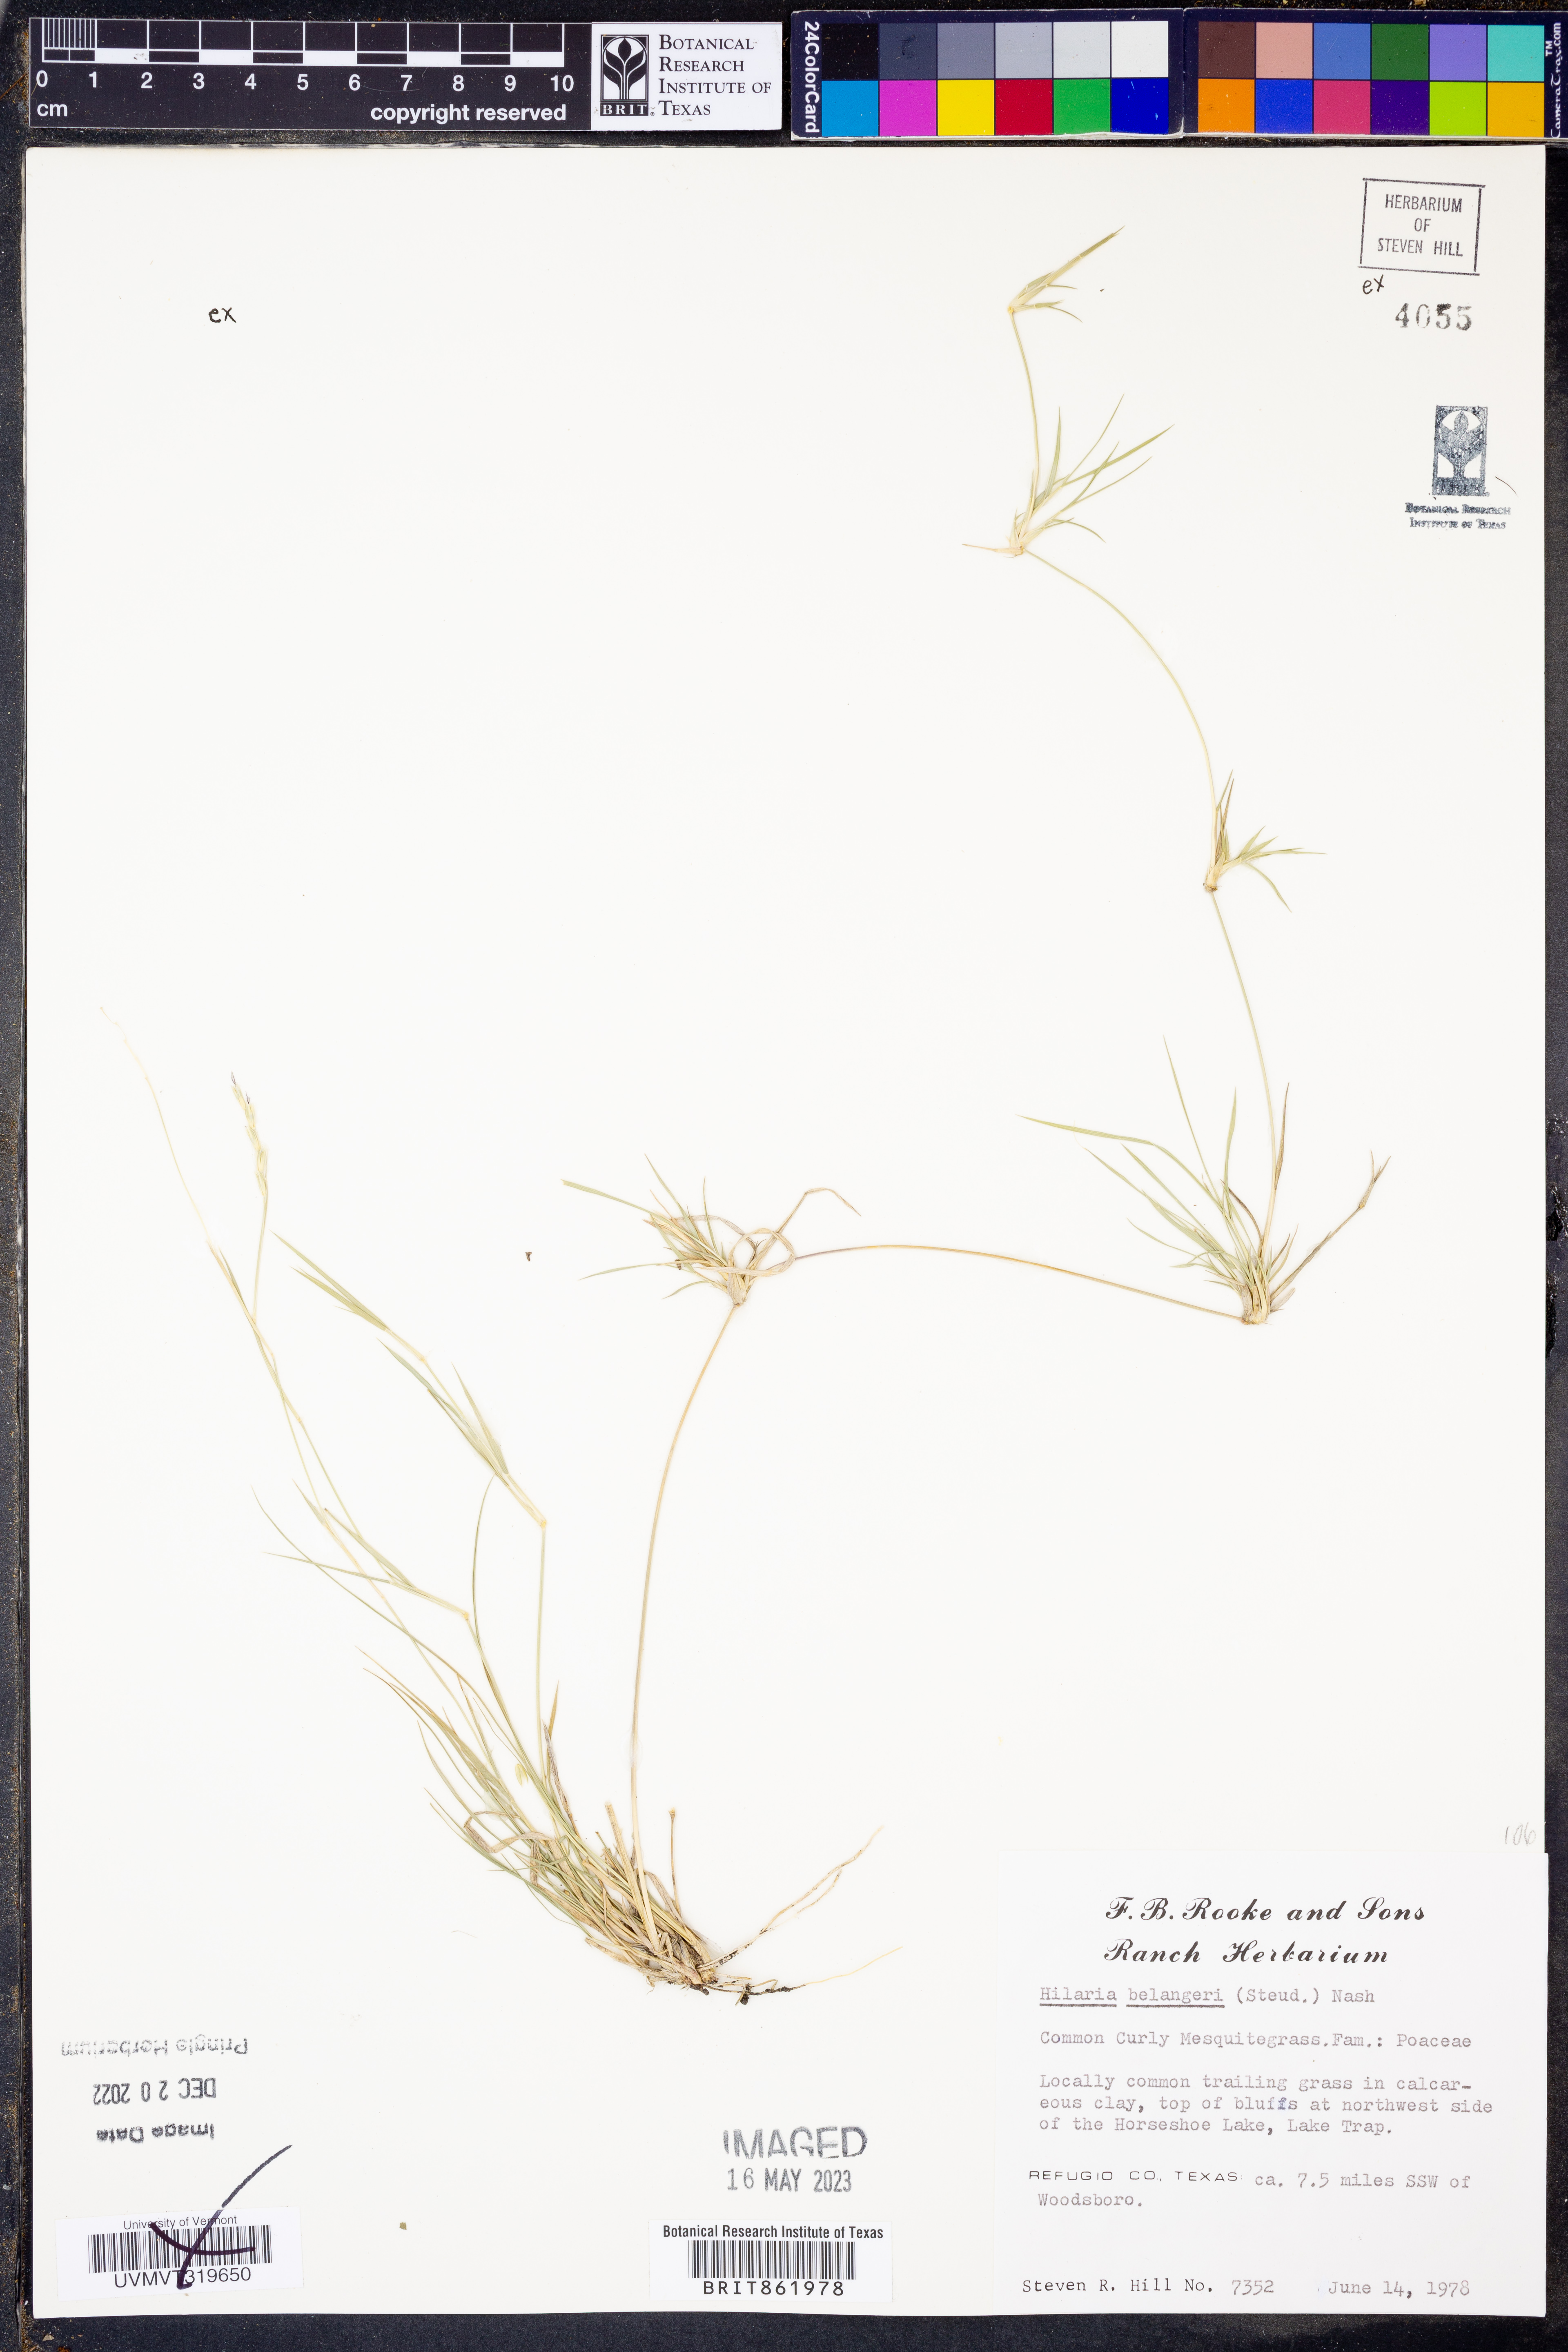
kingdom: Plantae
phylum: Tracheophyta
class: Liliopsida
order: Poales
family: Poaceae
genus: Hilaria
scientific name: Hilaria belangeri
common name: Curly-mesquite
